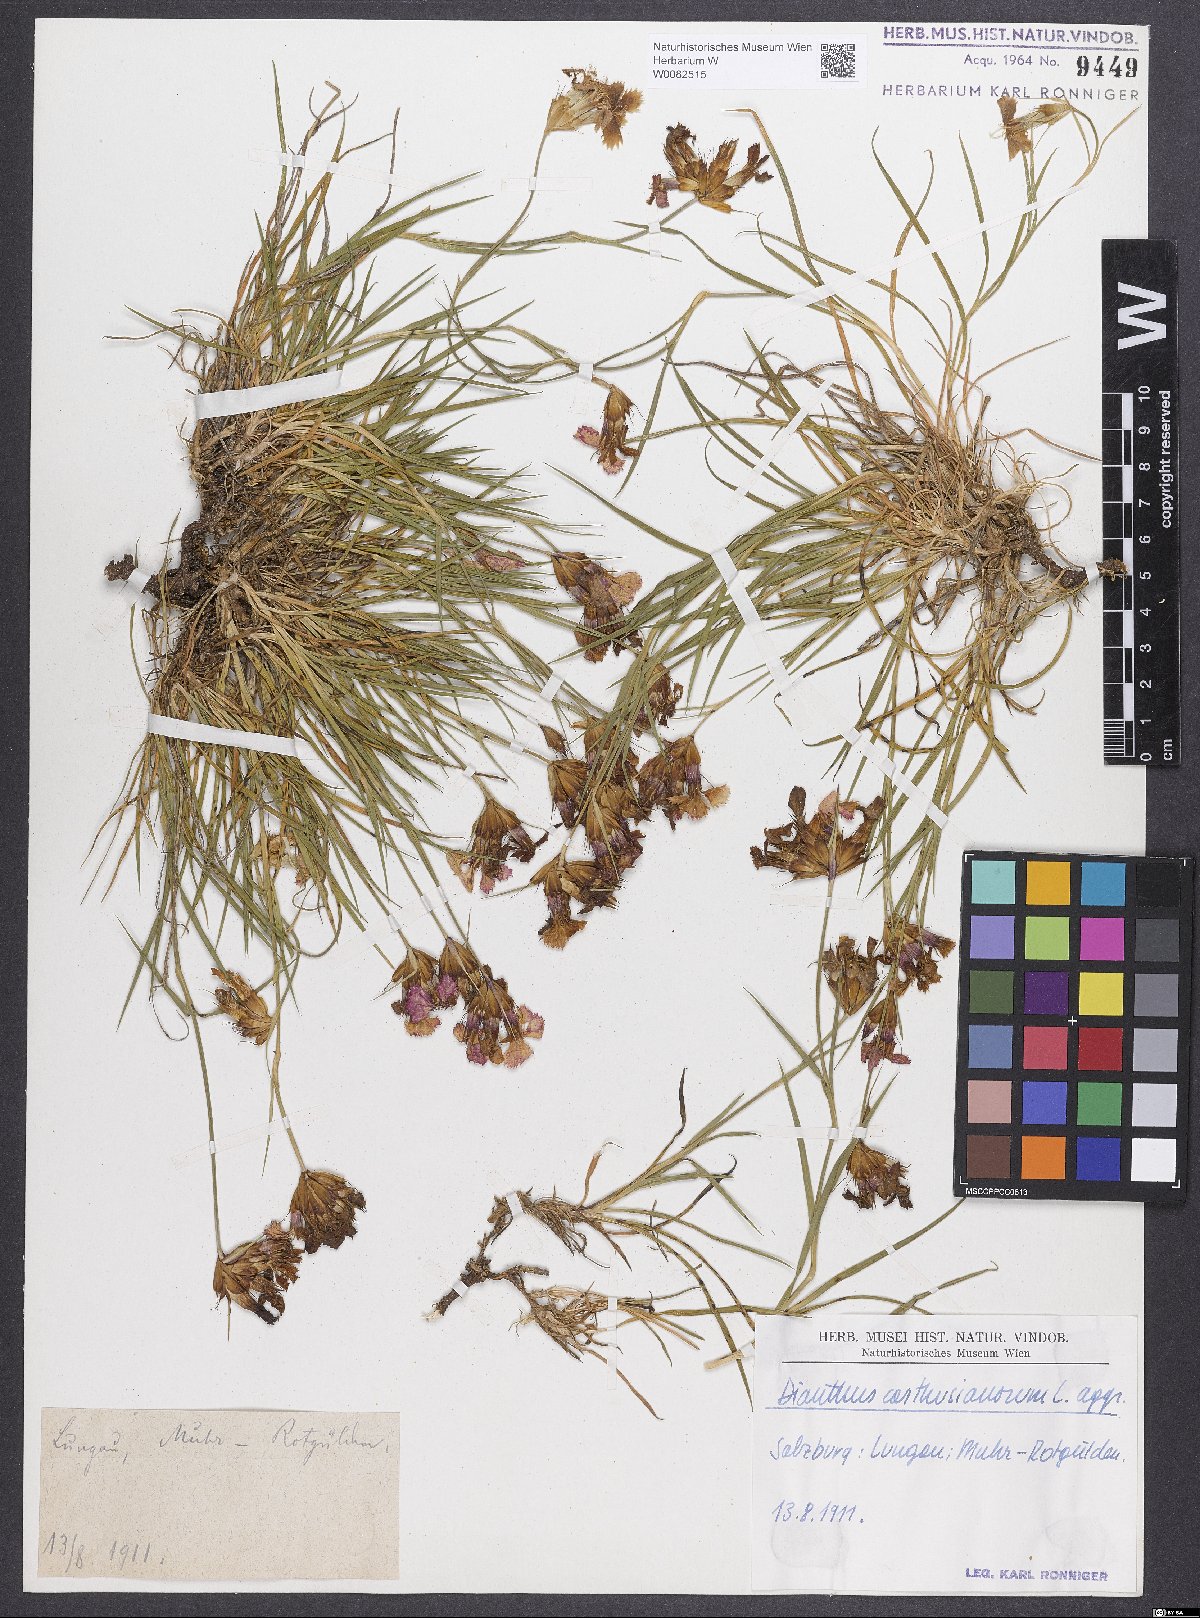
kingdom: Plantae
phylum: Tracheophyta
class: Magnoliopsida
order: Caryophyllales
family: Caryophyllaceae
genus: Dianthus
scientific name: Dianthus carthusianorum
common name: Carthusian pink
